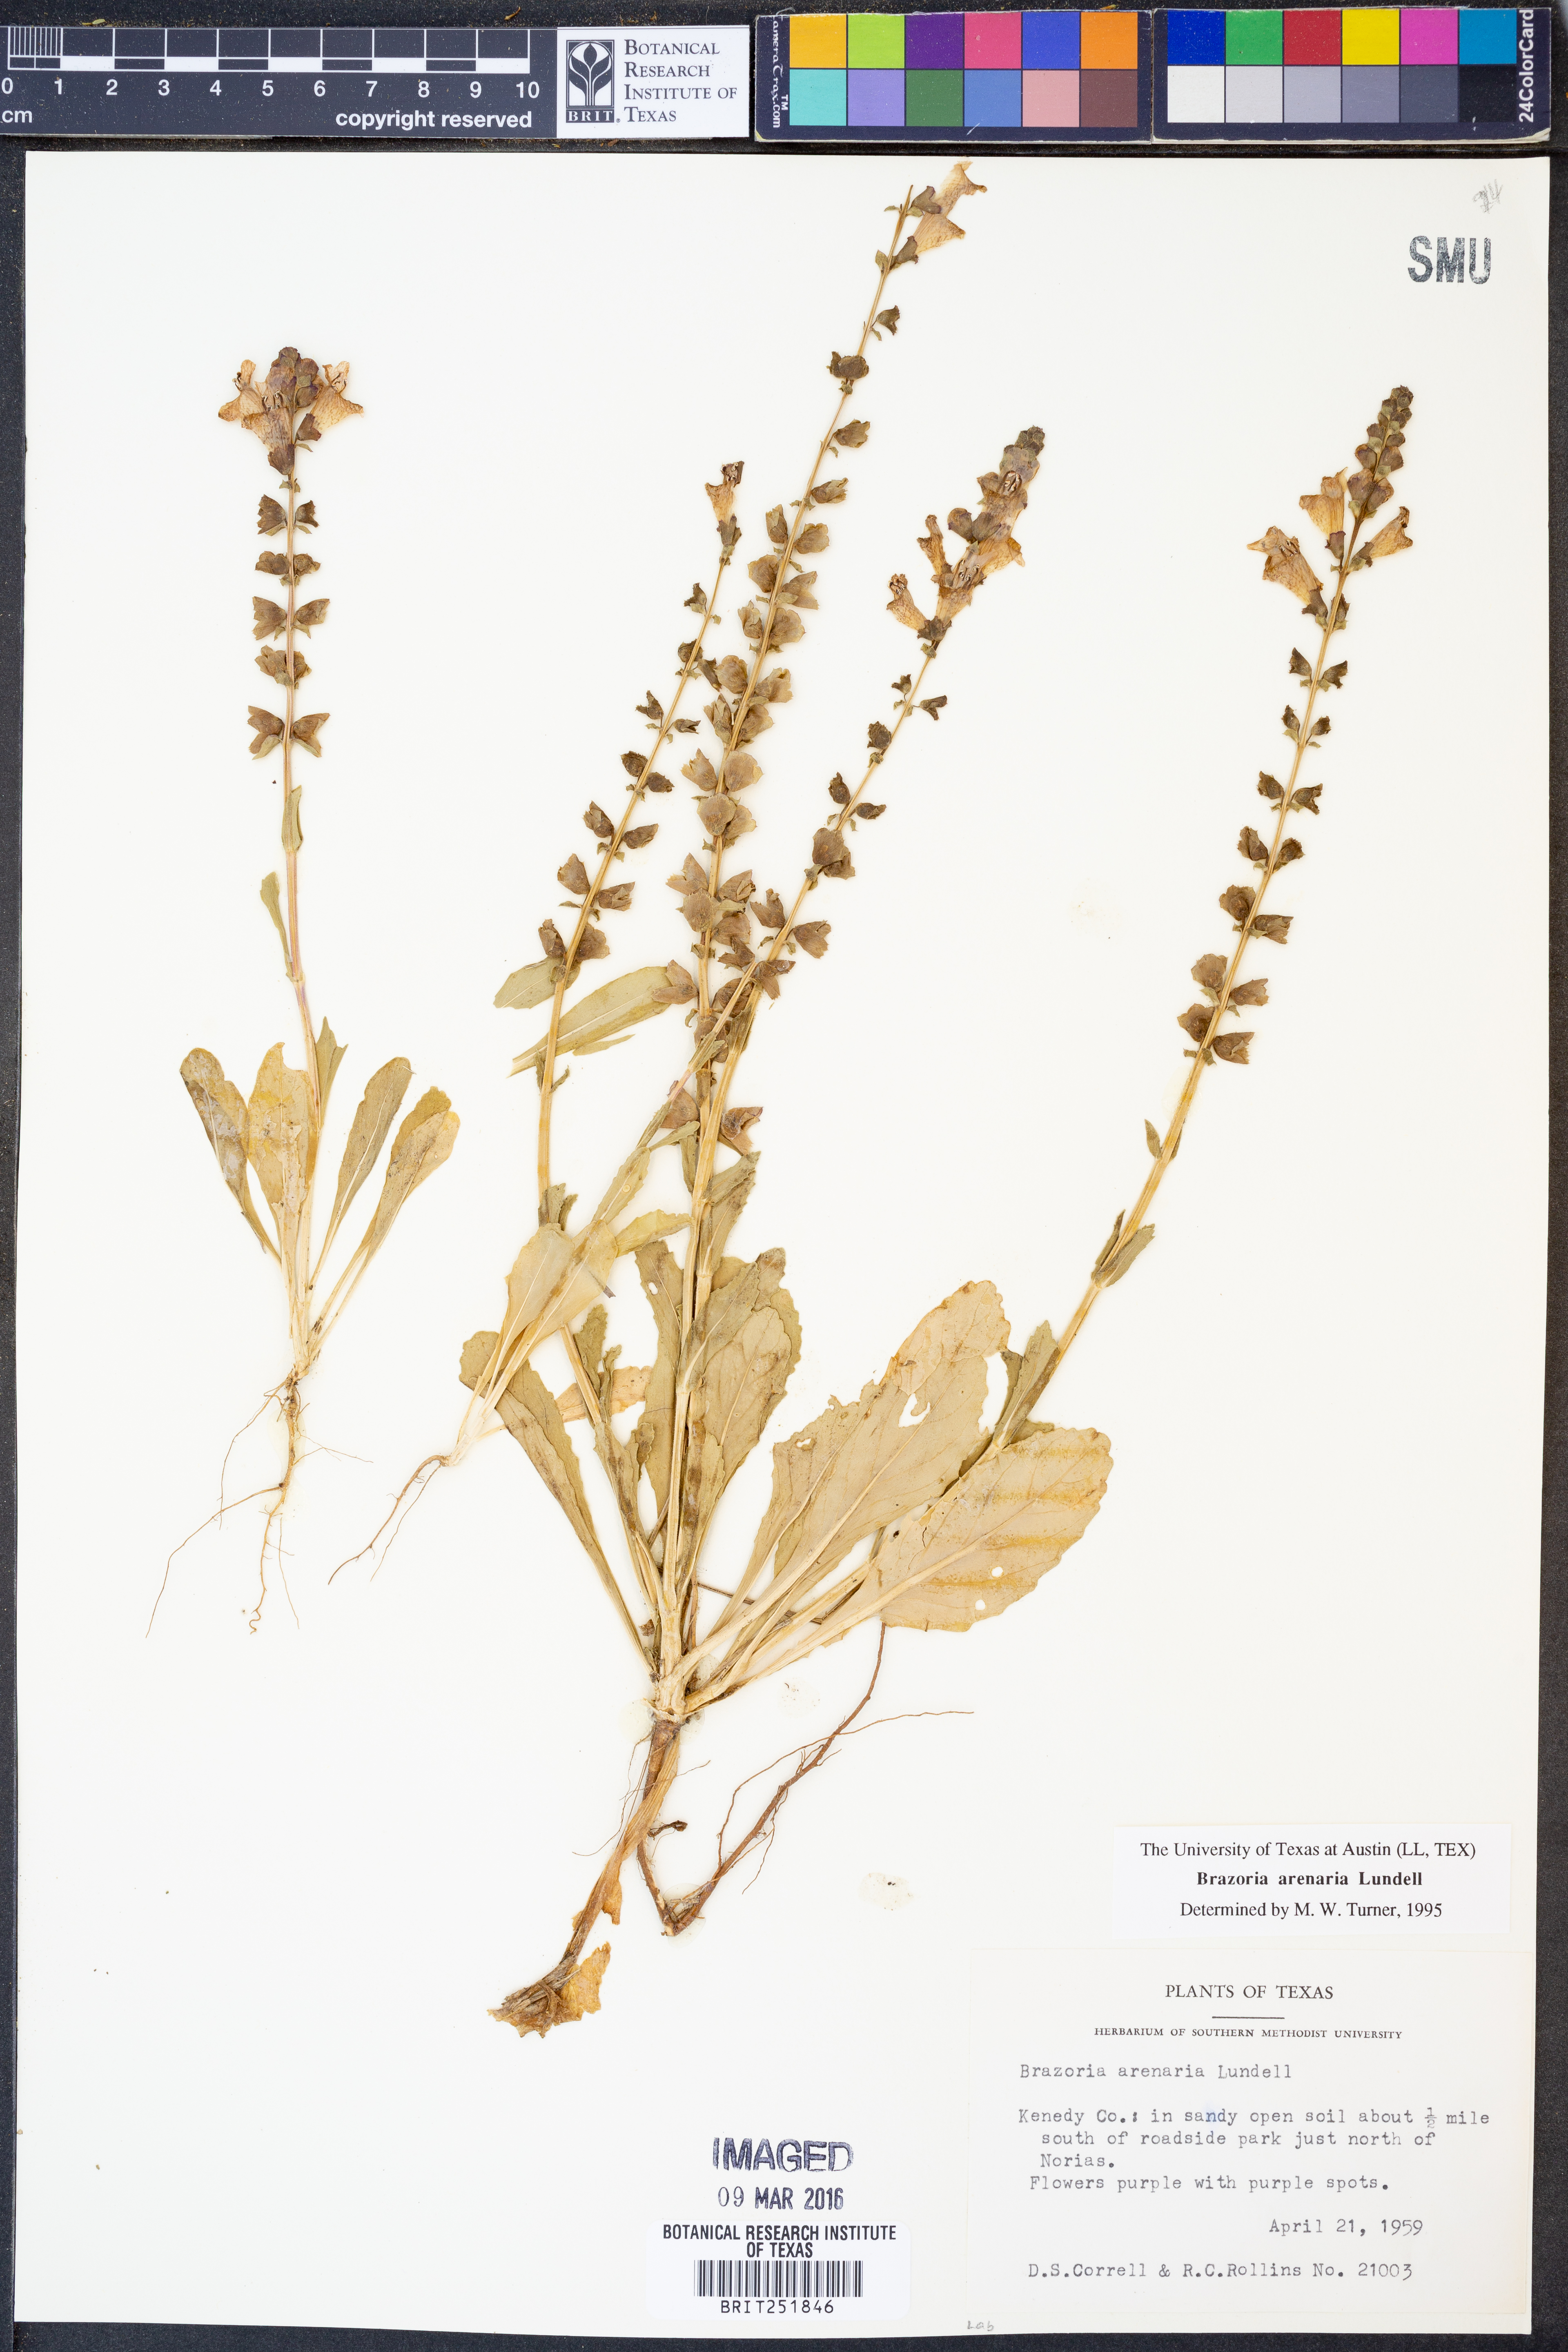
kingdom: Plantae
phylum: Tracheophyta
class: Magnoliopsida
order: Lamiales
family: Lamiaceae
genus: Brazoria
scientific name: Brazoria arenaria
